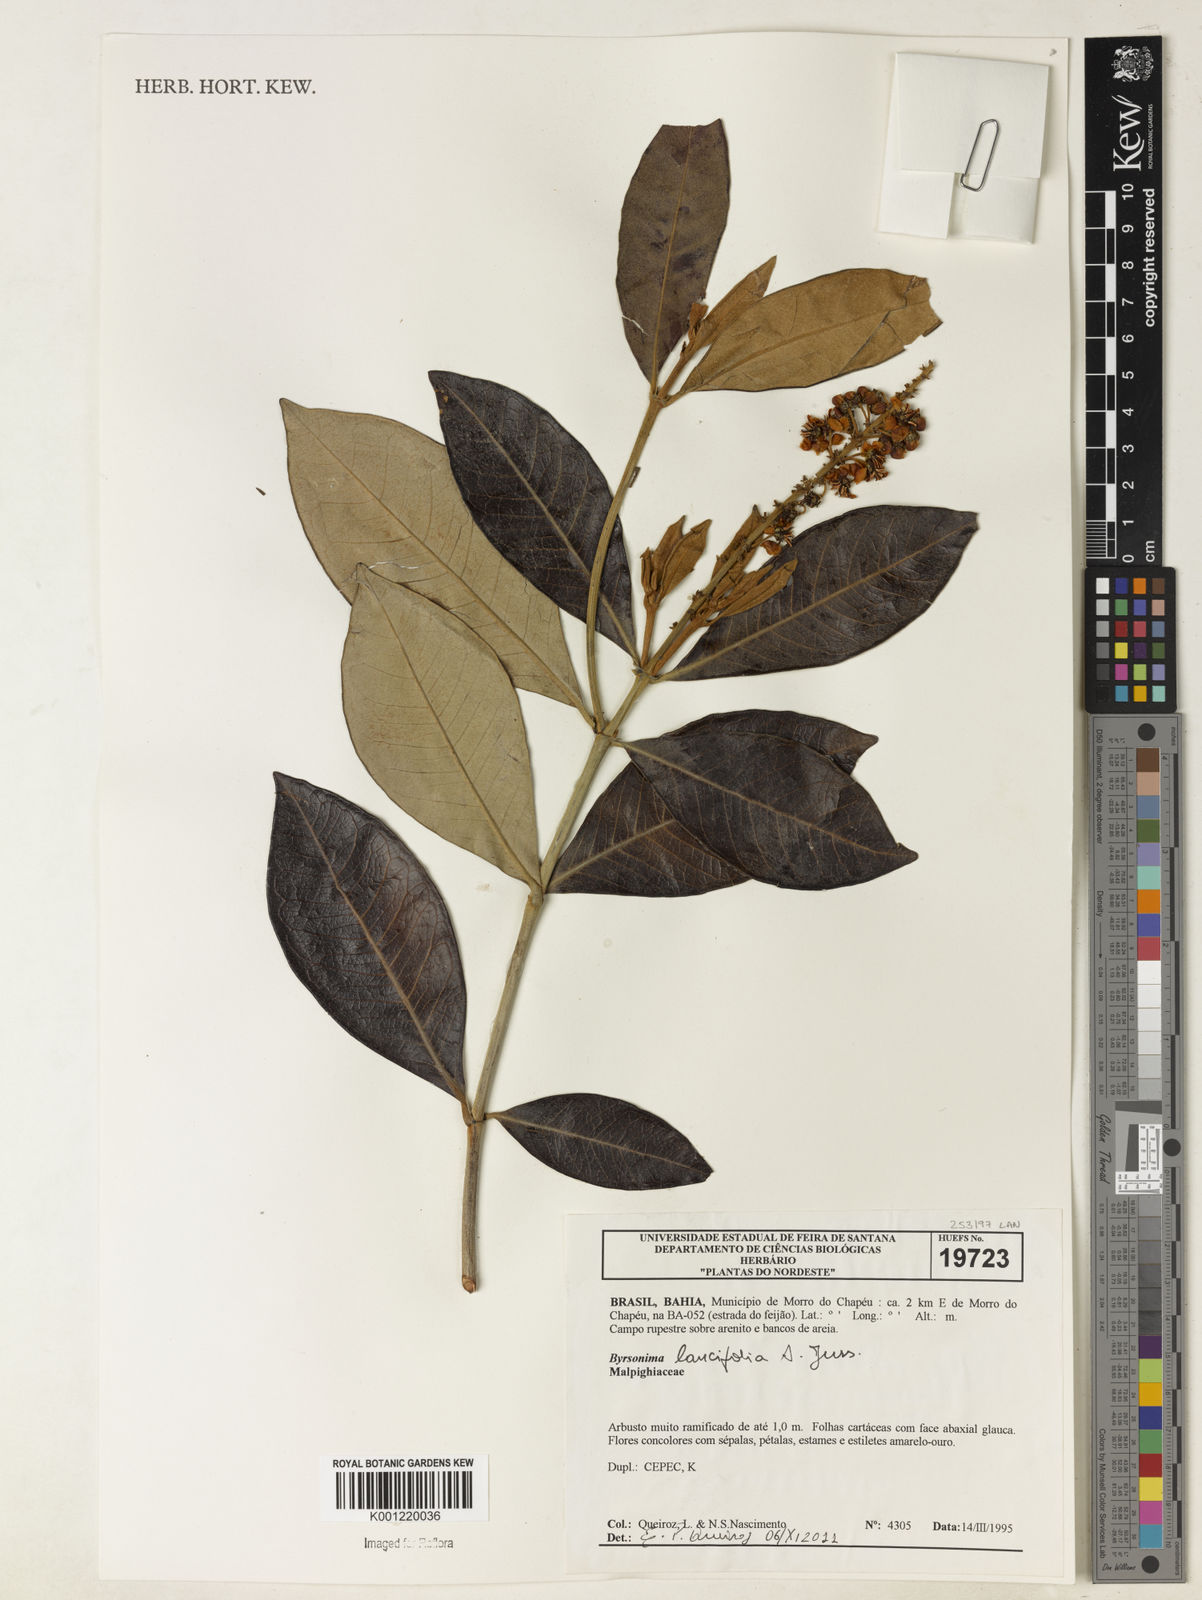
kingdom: Plantae
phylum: Tracheophyta
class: Magnoliopsida
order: Malpighiales
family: Malpighiaceae
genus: Byrsonima
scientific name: Byrsonima lancifolia
